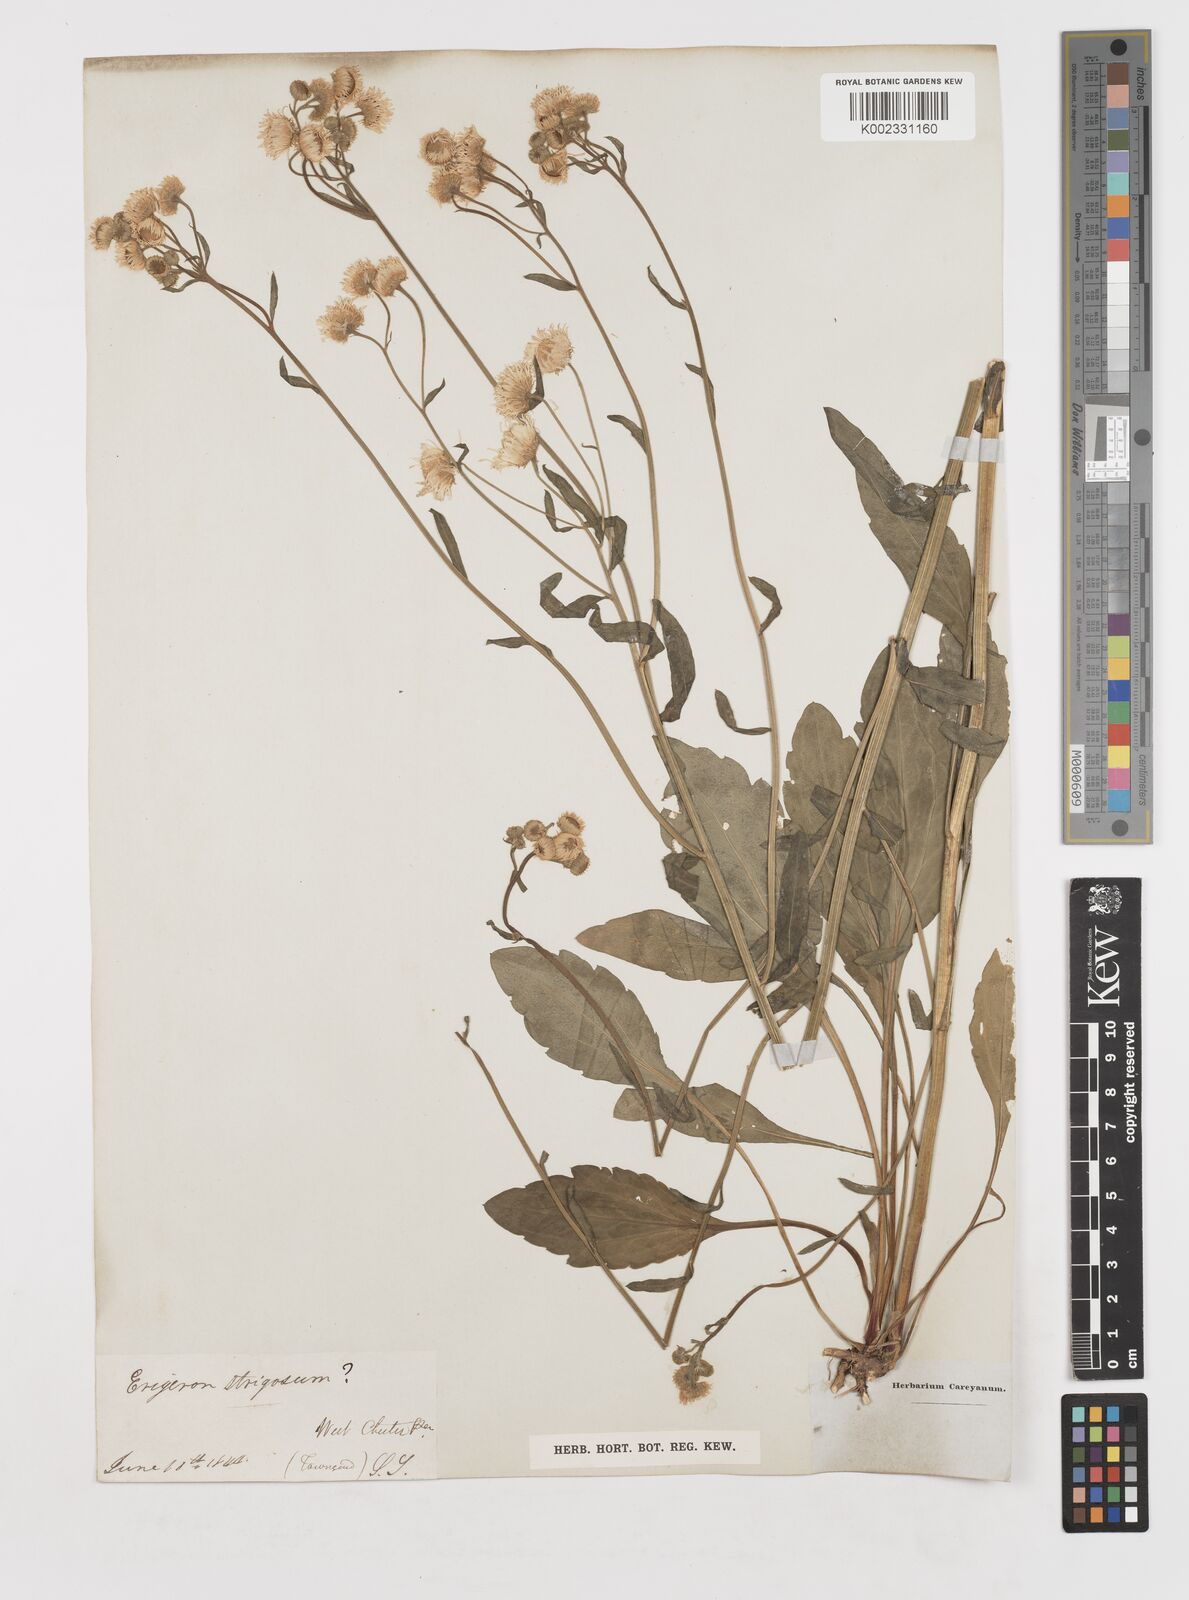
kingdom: Plantae
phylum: Tracheophyta
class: Magnoliopsida
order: Asterales
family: Asteraceae
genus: Erigeron
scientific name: Erigeron strigosus
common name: Common eastern fleabane
